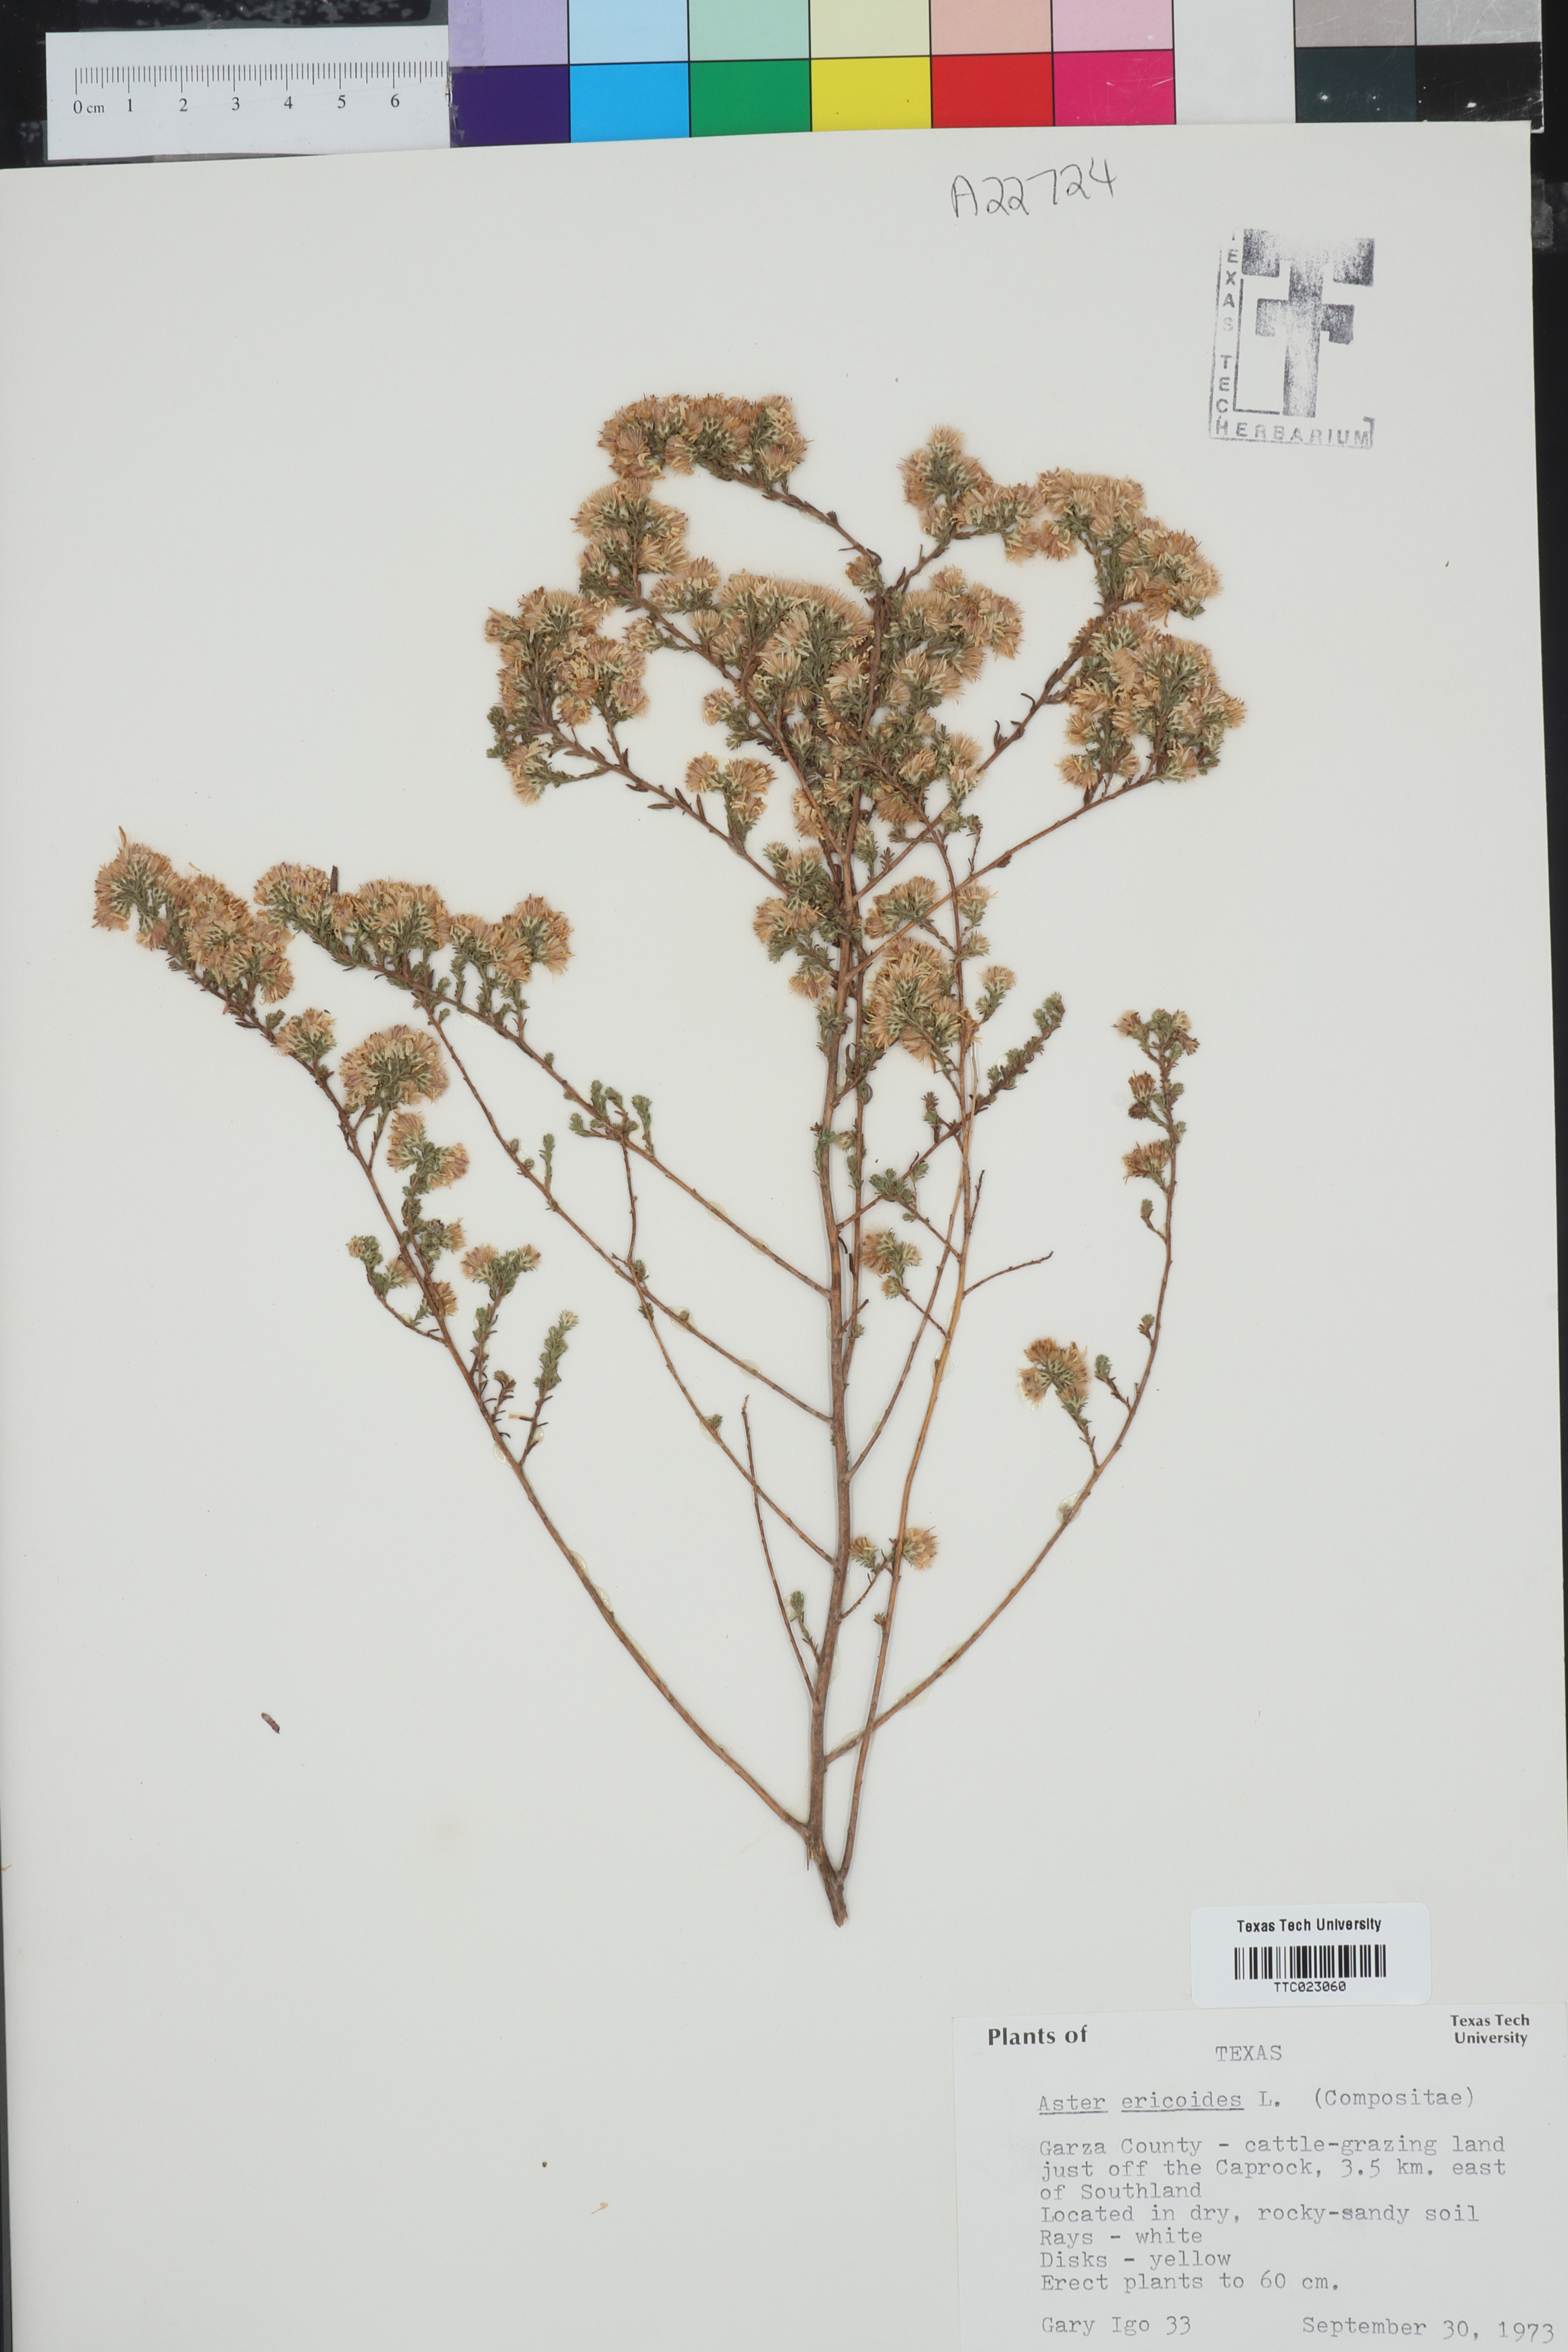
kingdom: Plantae
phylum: Tracheophyta
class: Magnoliopsida
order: Asterales
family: Asteraceae
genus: Symphyotrichum
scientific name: Symphyotrichum ericoides
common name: Heath aster
